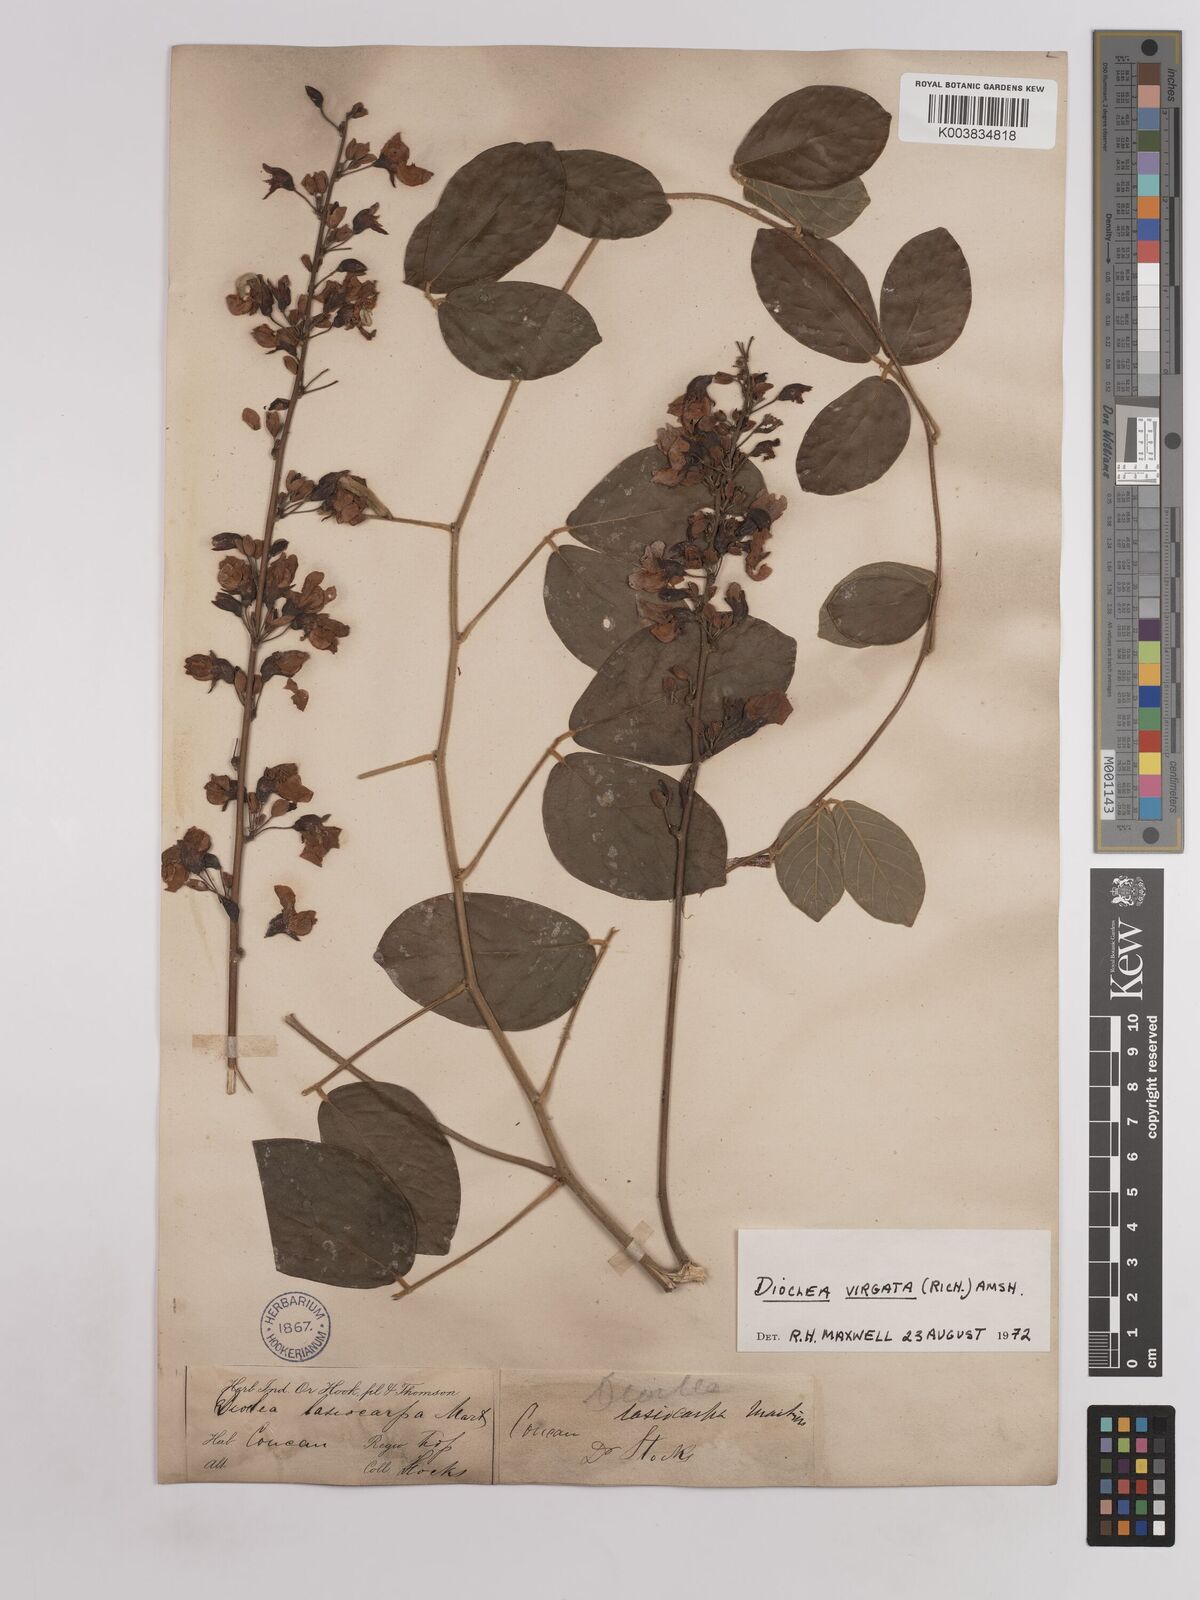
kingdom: Plantae
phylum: Tracheophyta
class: Magnoliopsida
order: Fabales
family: Fabaceae
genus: Dioclea
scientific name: Dioclea virgata
